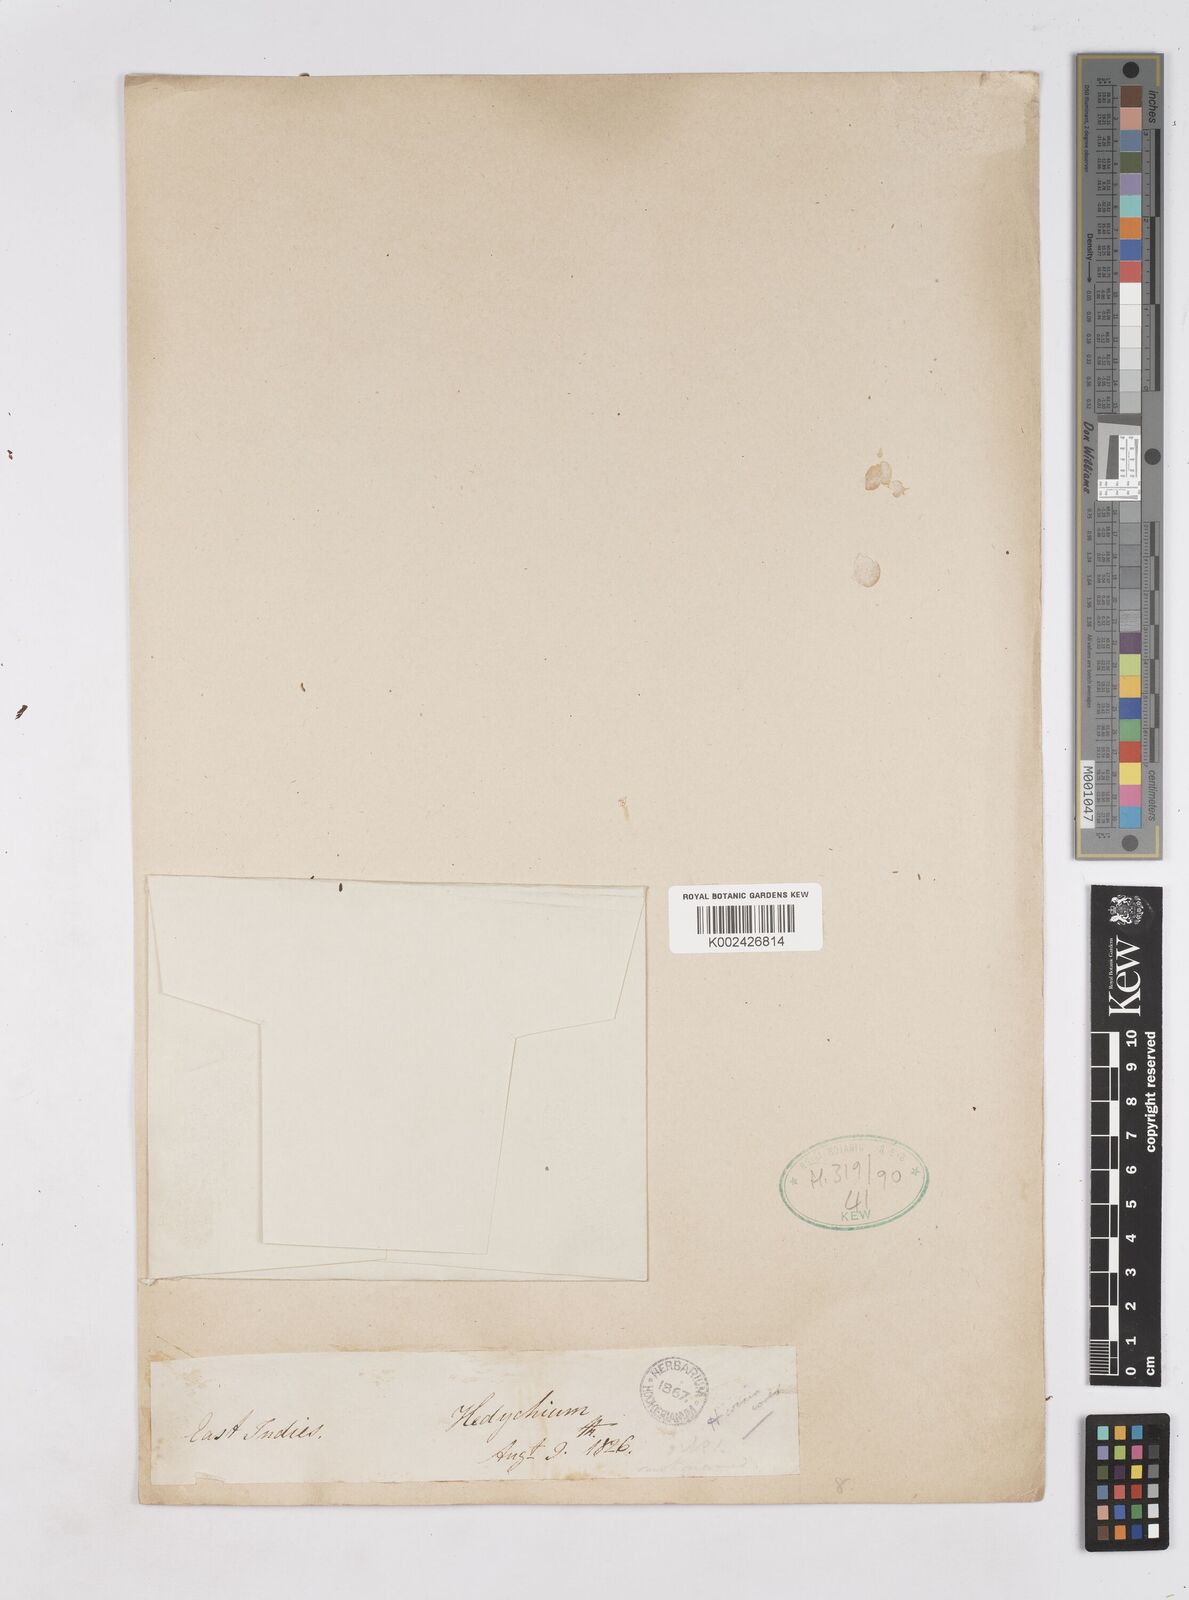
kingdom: Plantae
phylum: Tracheophyta
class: Liliopsida
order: Zingiberales
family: Zingiberaceae
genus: Hedychium
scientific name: Hedychium coccineum
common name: Red ginger-lily
